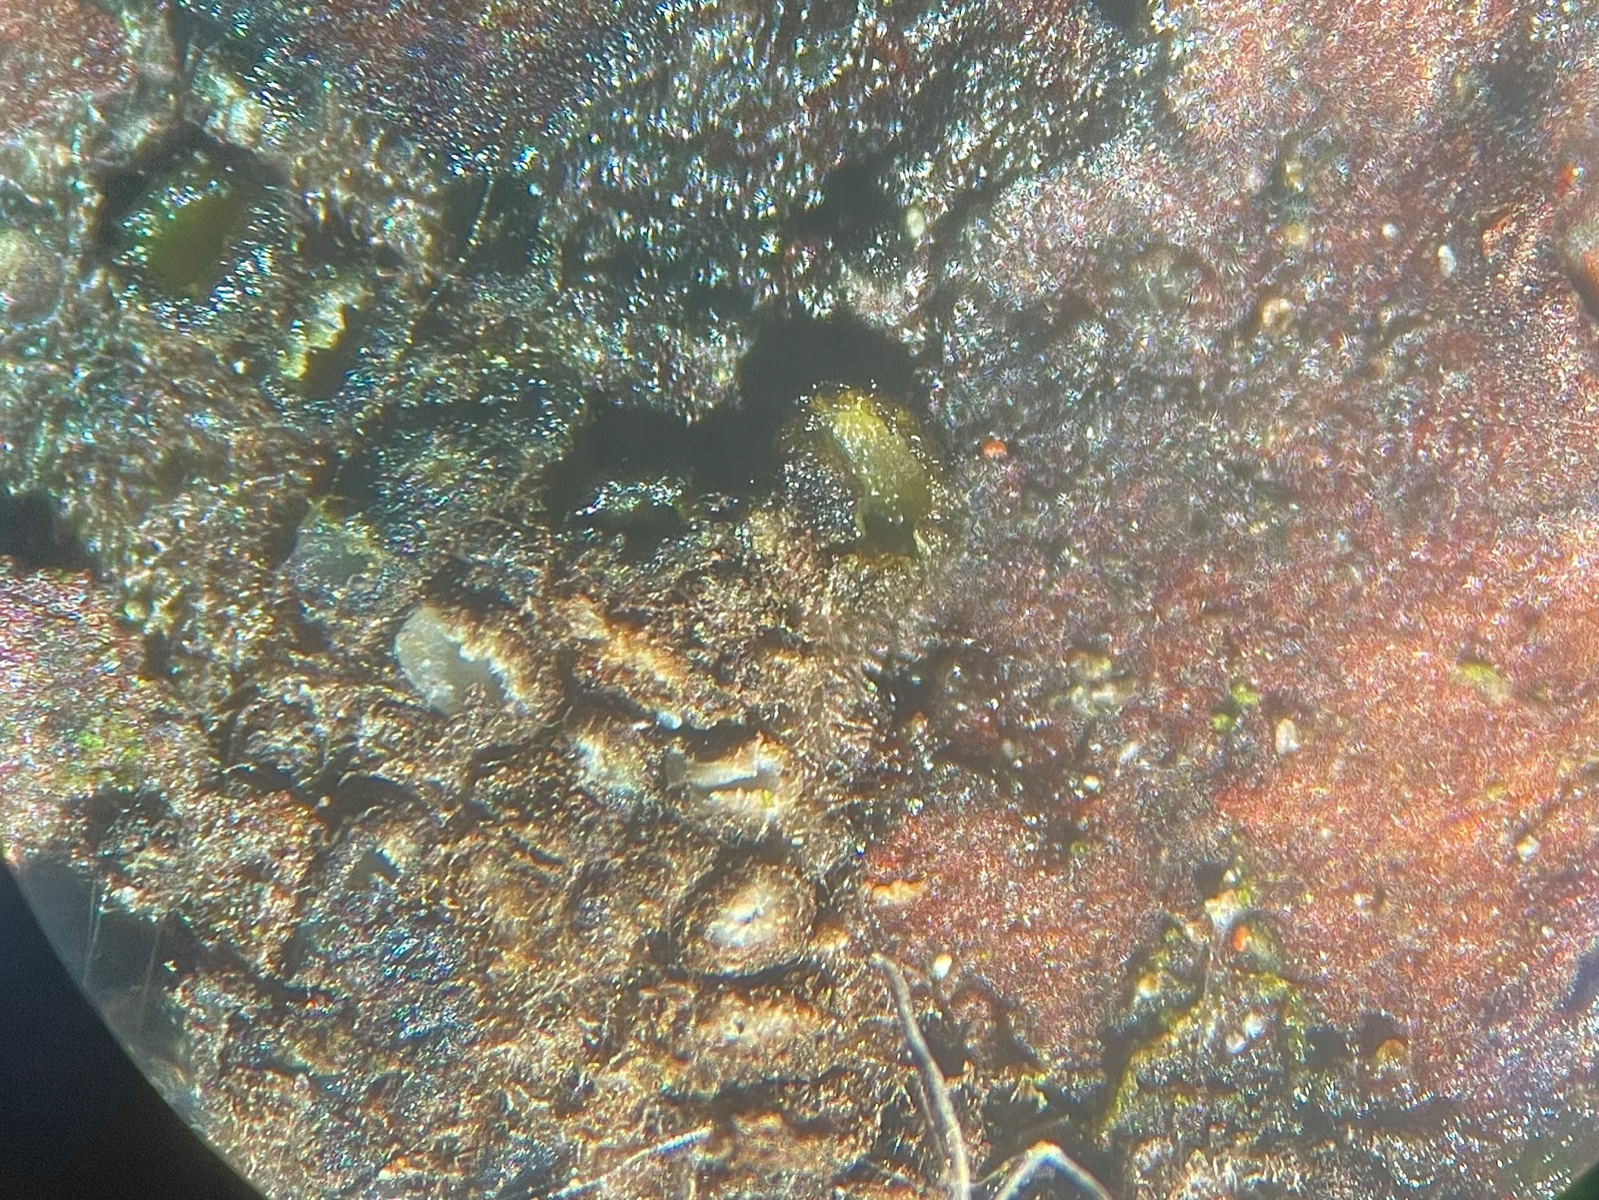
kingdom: Fungi
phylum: Ascomycota
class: Leotiomycetes
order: Helotiales
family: Mollisiaceae
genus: Mollisia
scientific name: Mollisia rosae
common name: rose-gråskive
